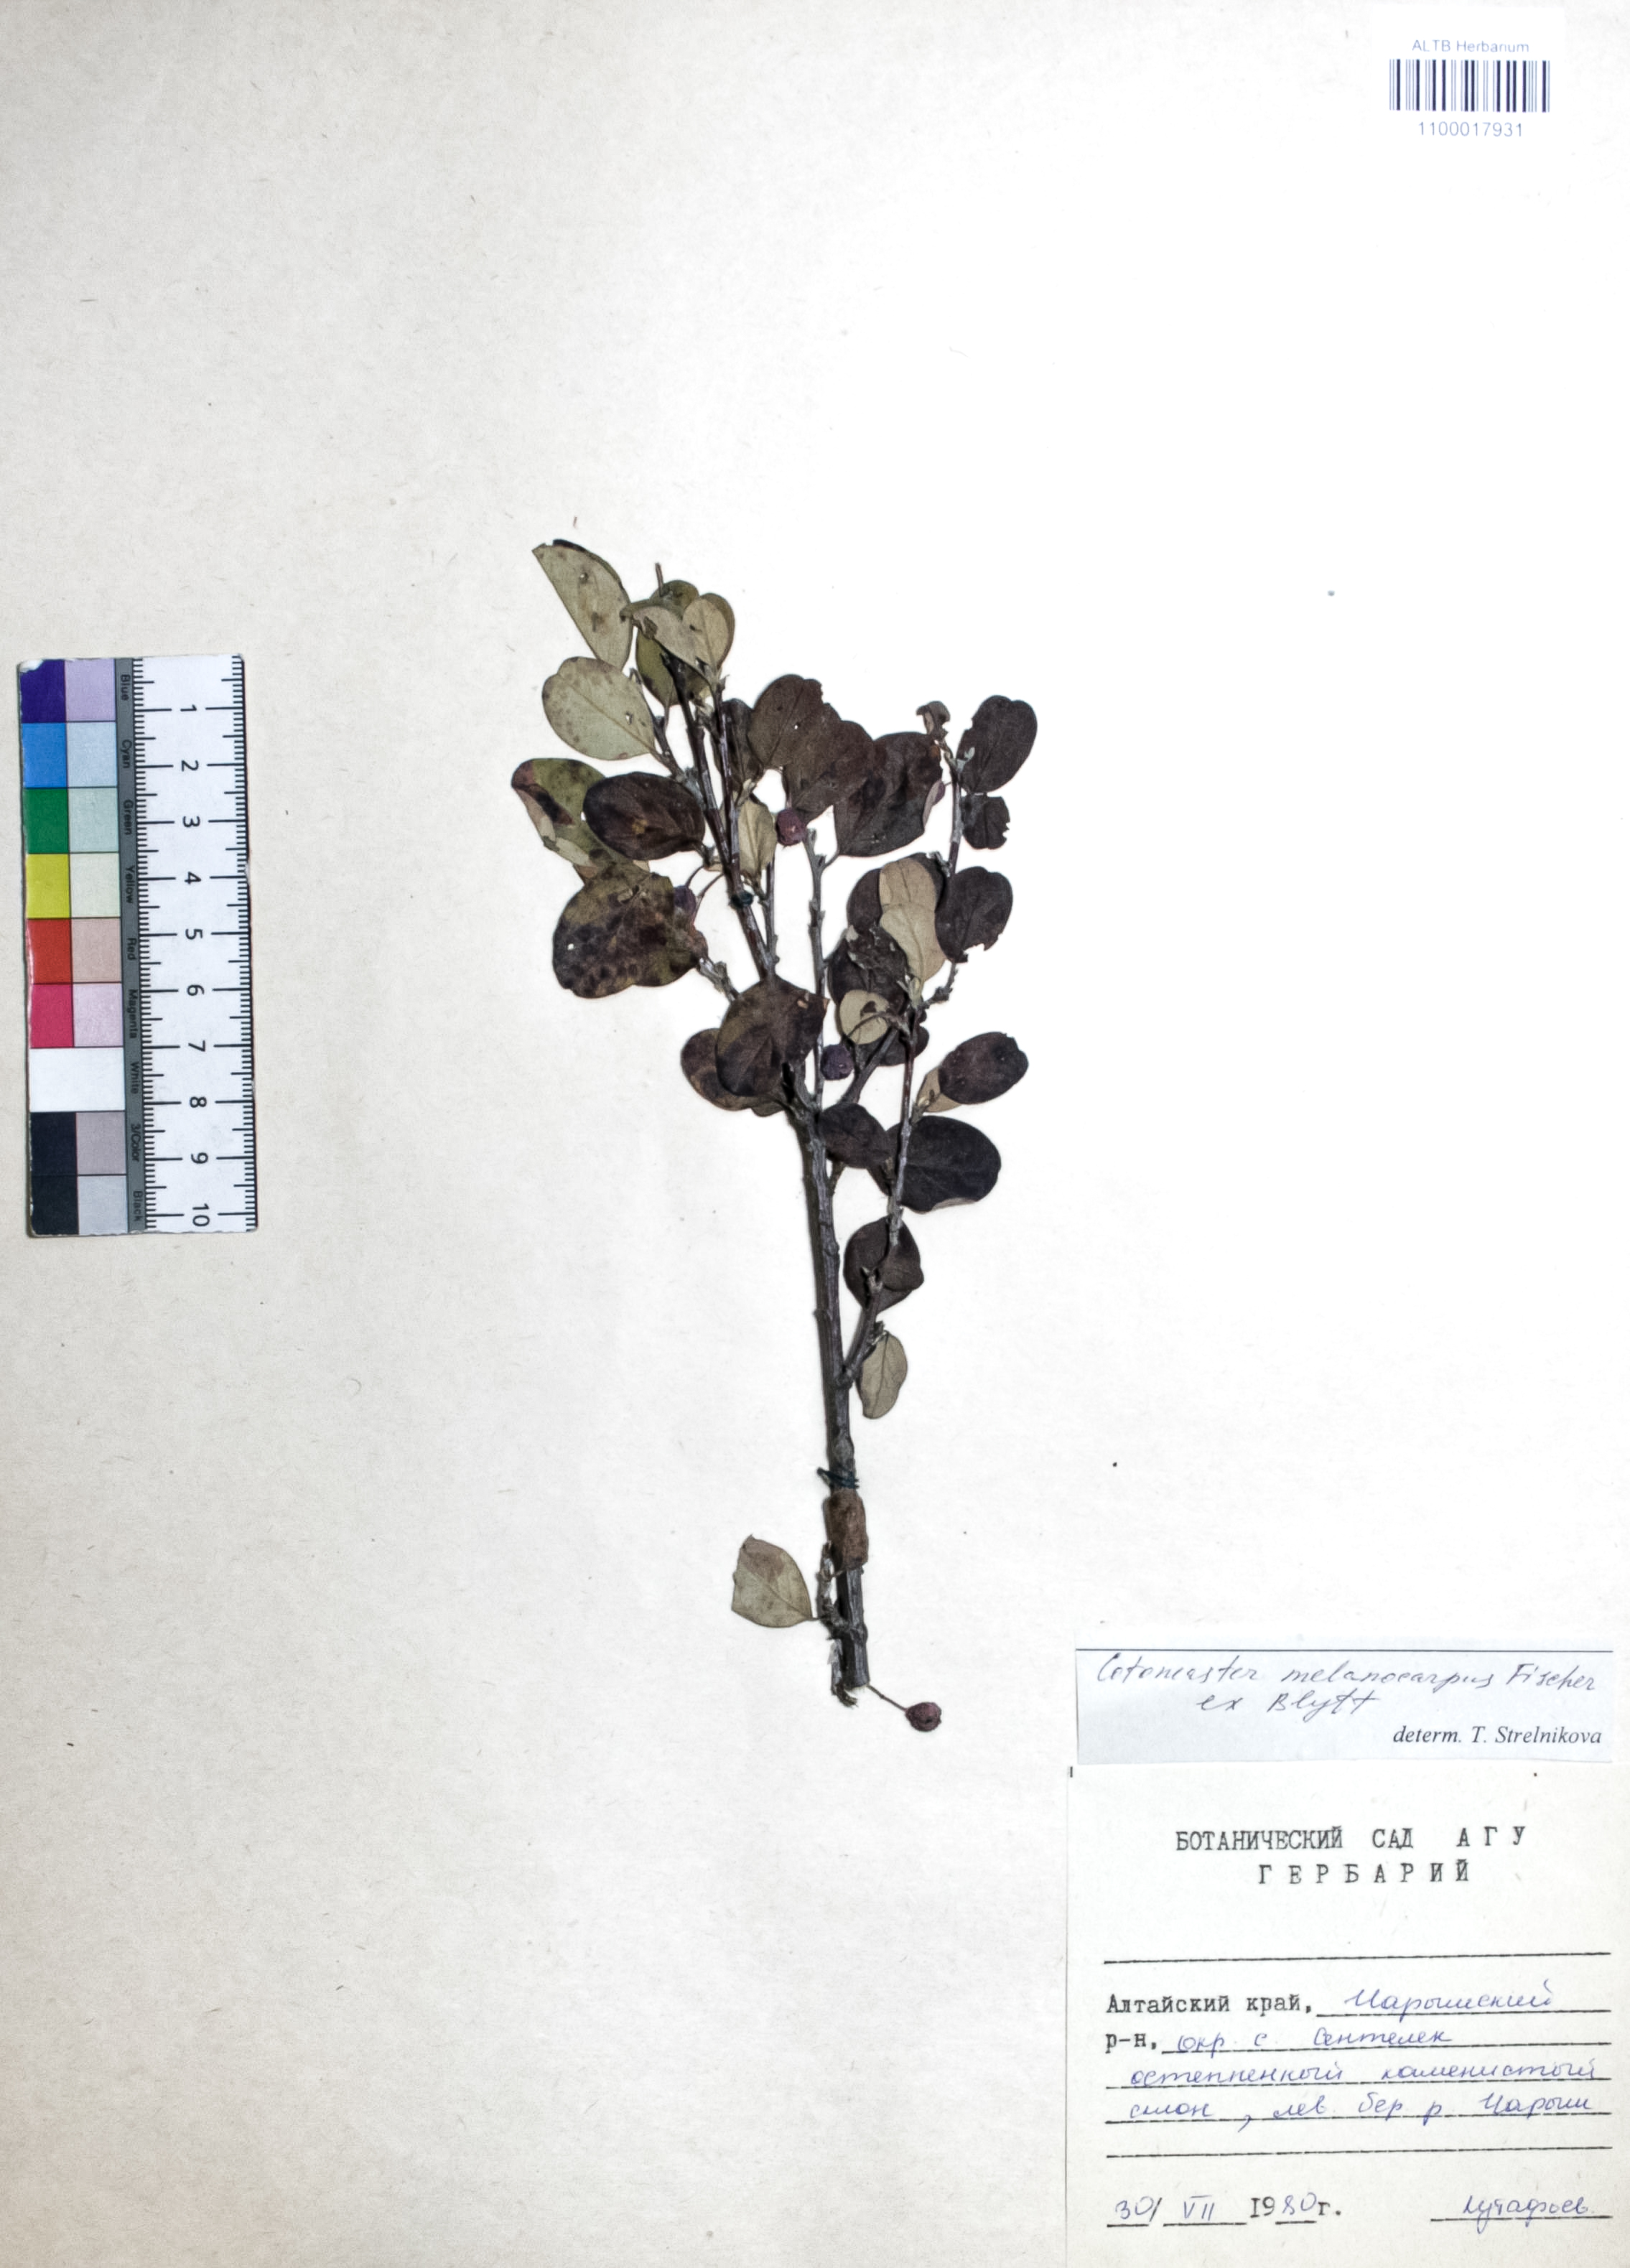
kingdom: Plantae
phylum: Tracheophyta
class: Magnoliopsida
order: Rosales
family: Rosaceae
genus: Cotoneaster
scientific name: Cotoneaster niger
